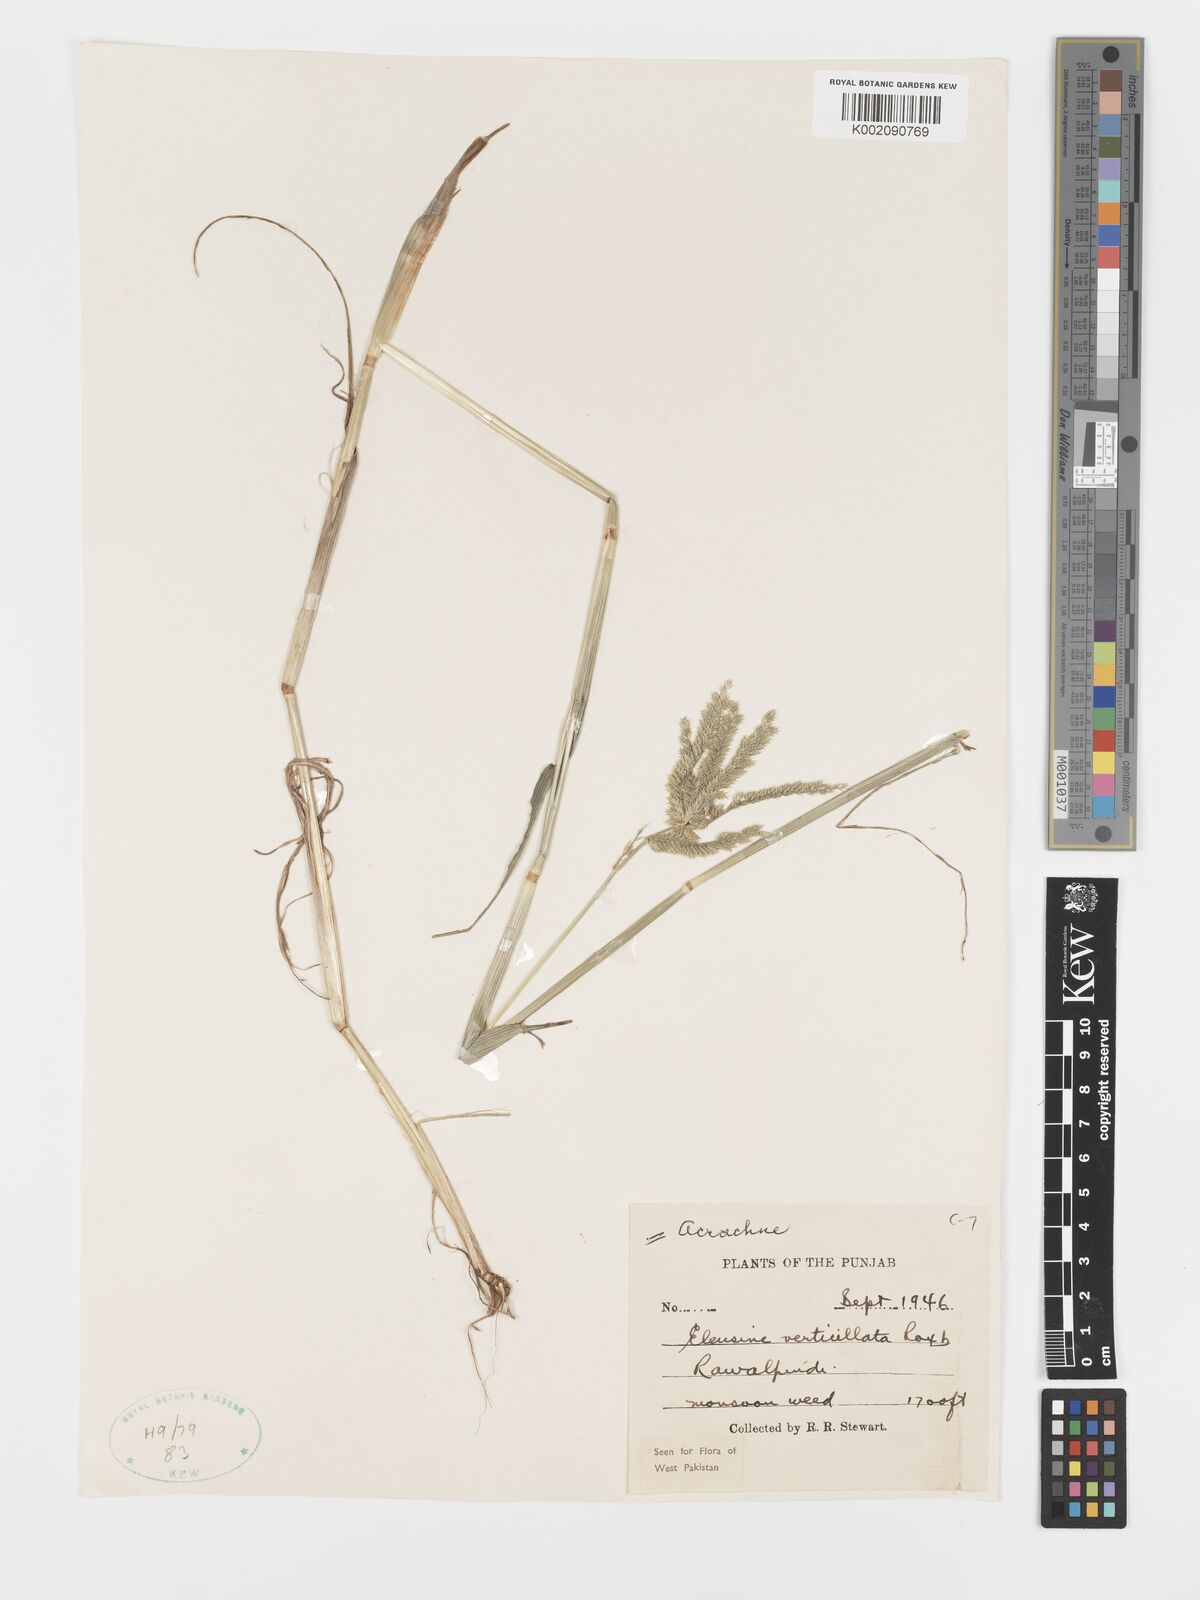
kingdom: Plantae
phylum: Tracheophyta
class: Liliopsida
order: Poales
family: Poaceae
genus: Acrachne
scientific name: Acrachne racemosa
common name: Goosegrass
